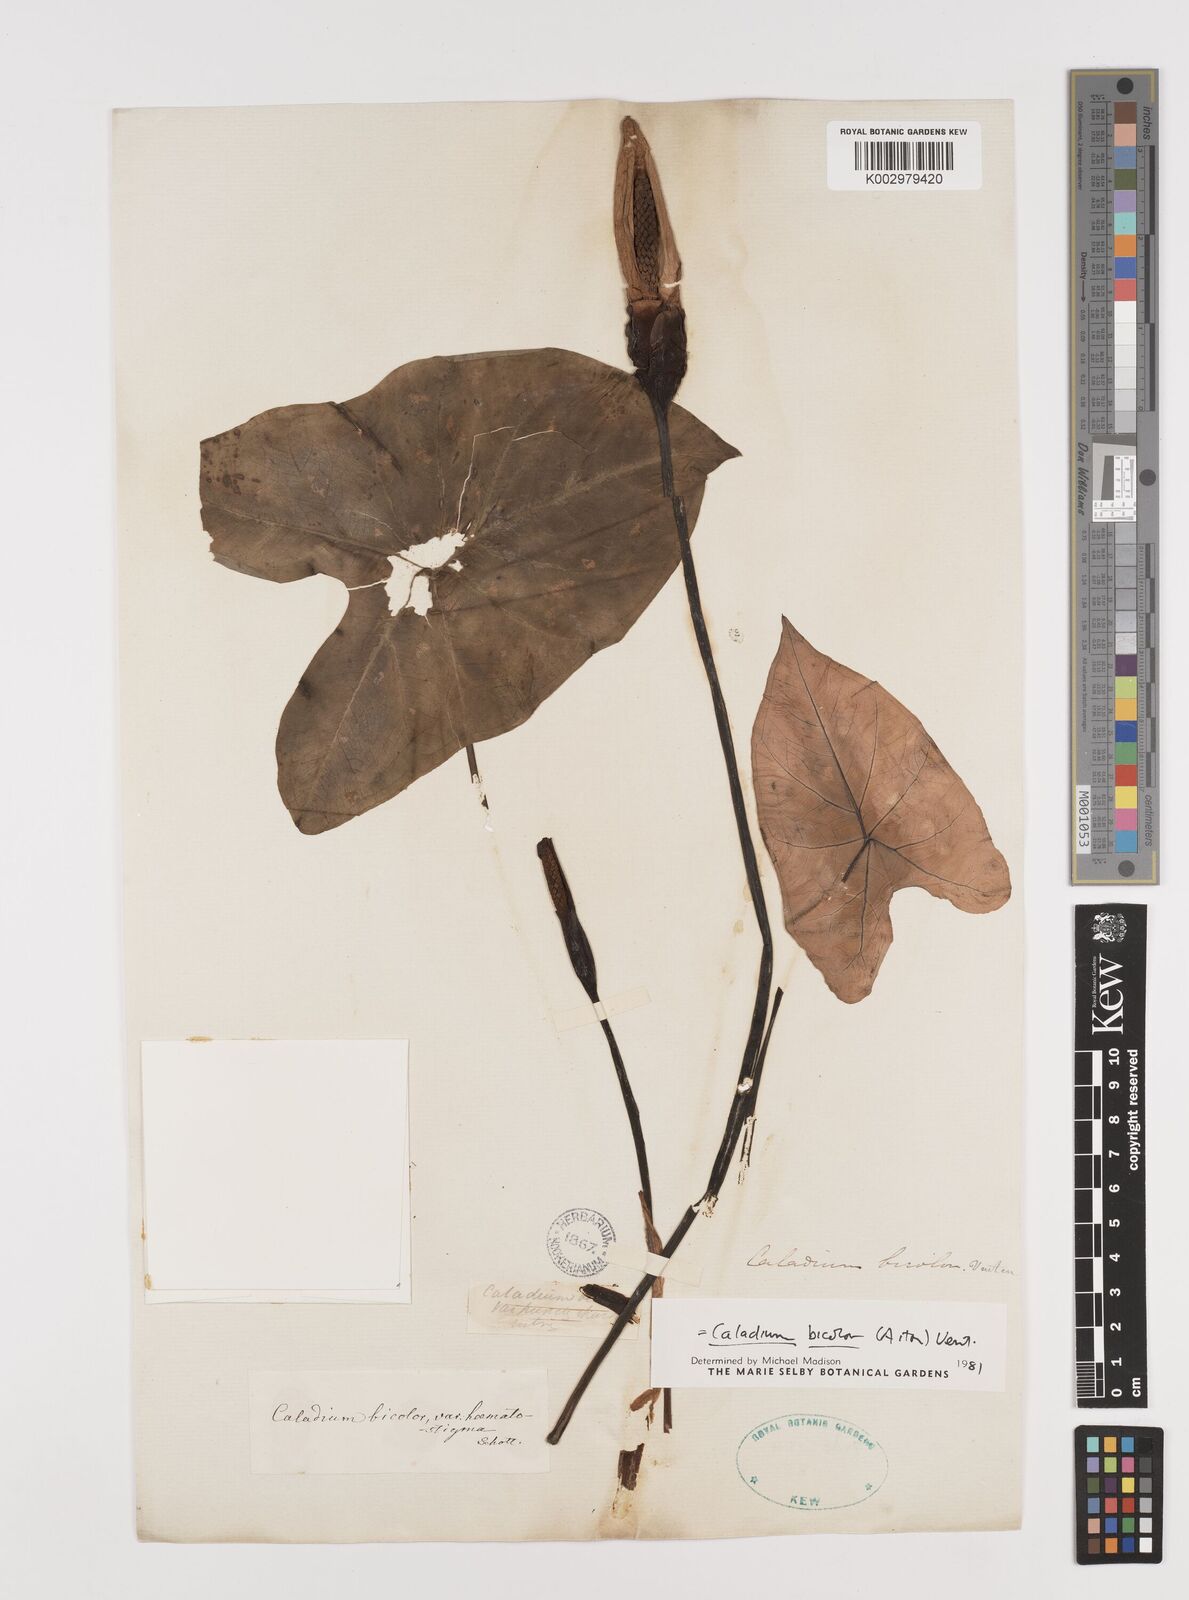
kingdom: Plantae
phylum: Tracheophyta
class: Liliopsida
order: Alismatales
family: Araceae
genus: Caladium
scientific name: Caladium bicolor
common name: Artist's pallet
